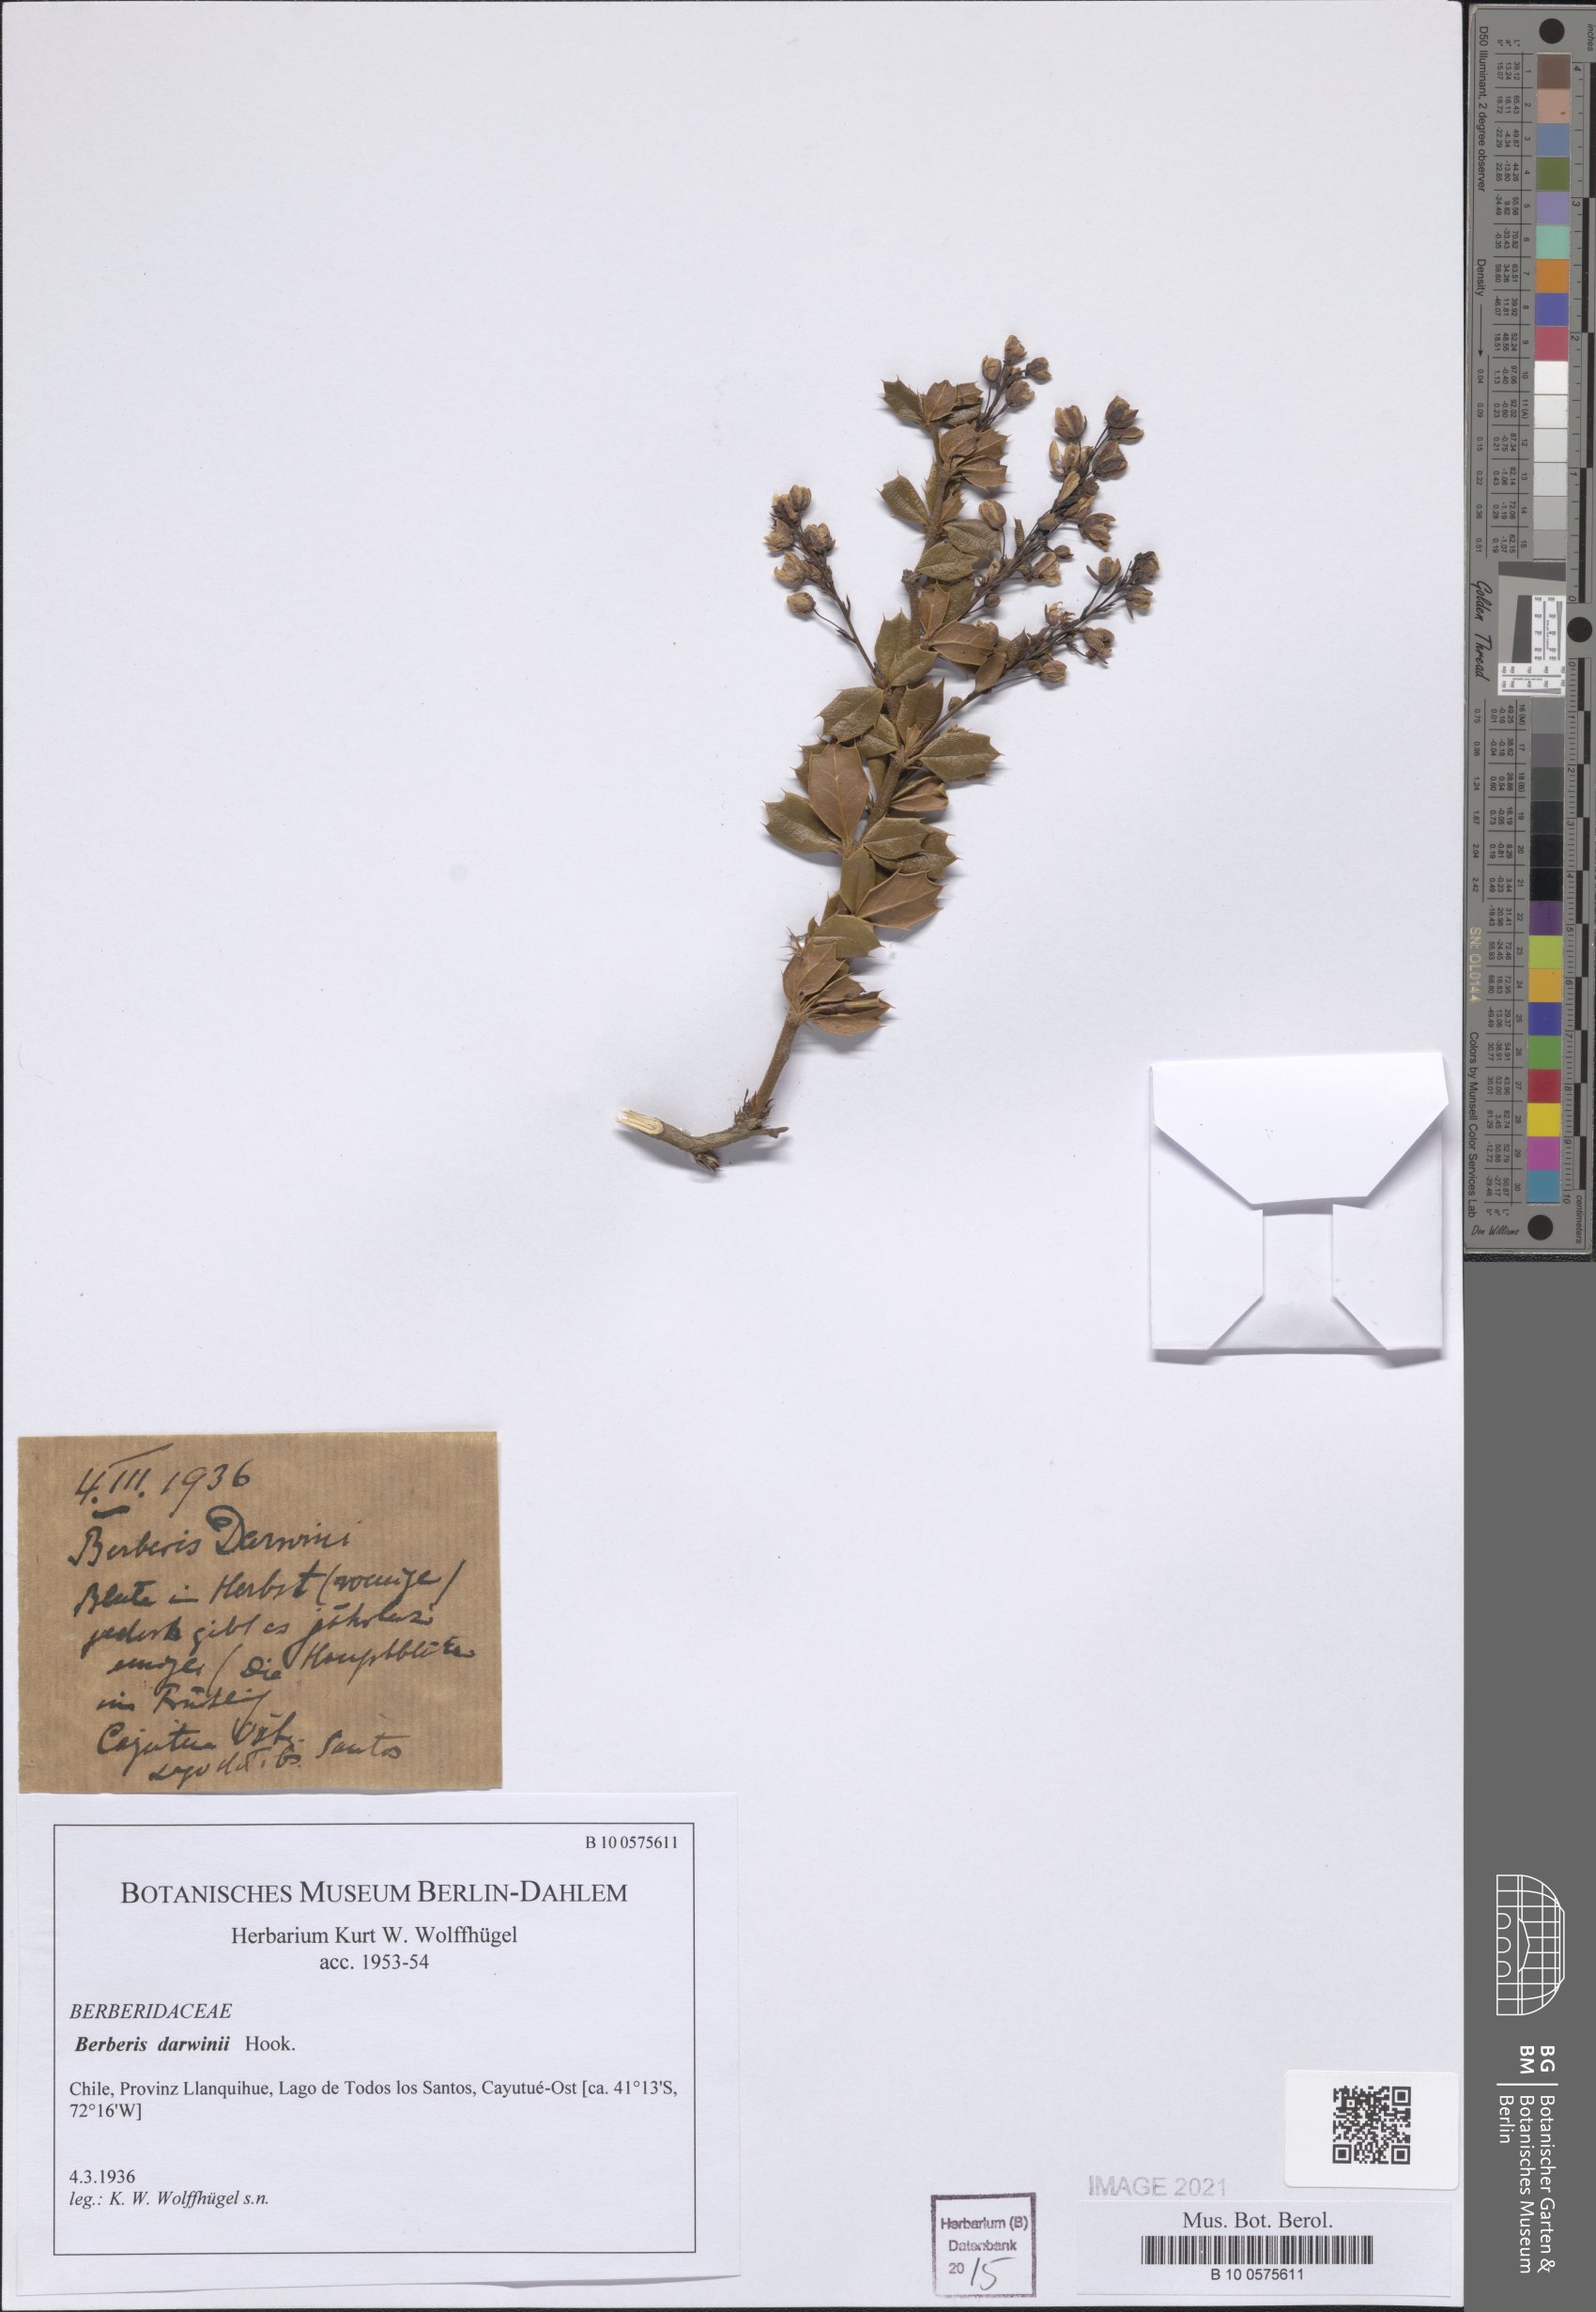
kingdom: Plantae
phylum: Tracheophyta
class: Magnoliopsida
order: Ranunculales
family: Berberidaceae
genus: Berberis
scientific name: Berberis darwinii
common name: Darwin's barberry
